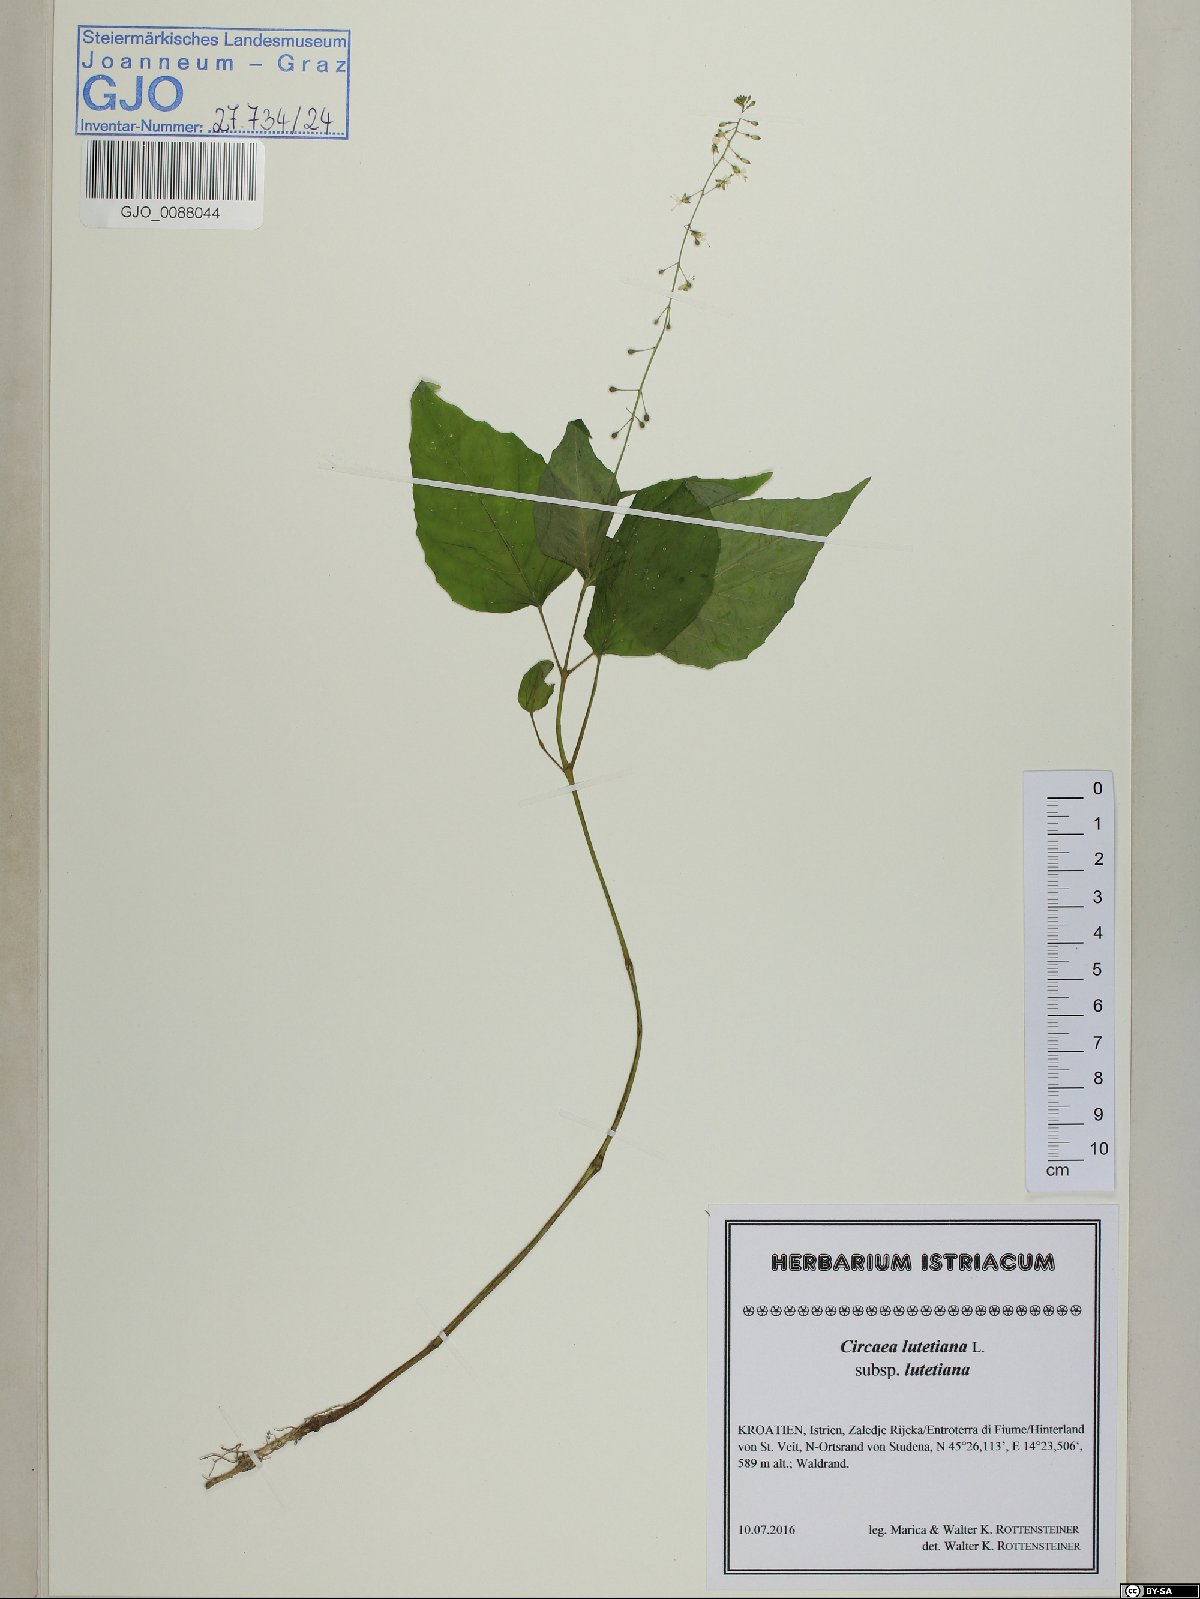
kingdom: Plantae
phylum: Tracheophyta
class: Magnoliopsida
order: Myrtales
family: Onagraceae
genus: Circaea
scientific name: Circaea lutetiana
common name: Enchanter's-nightshade
